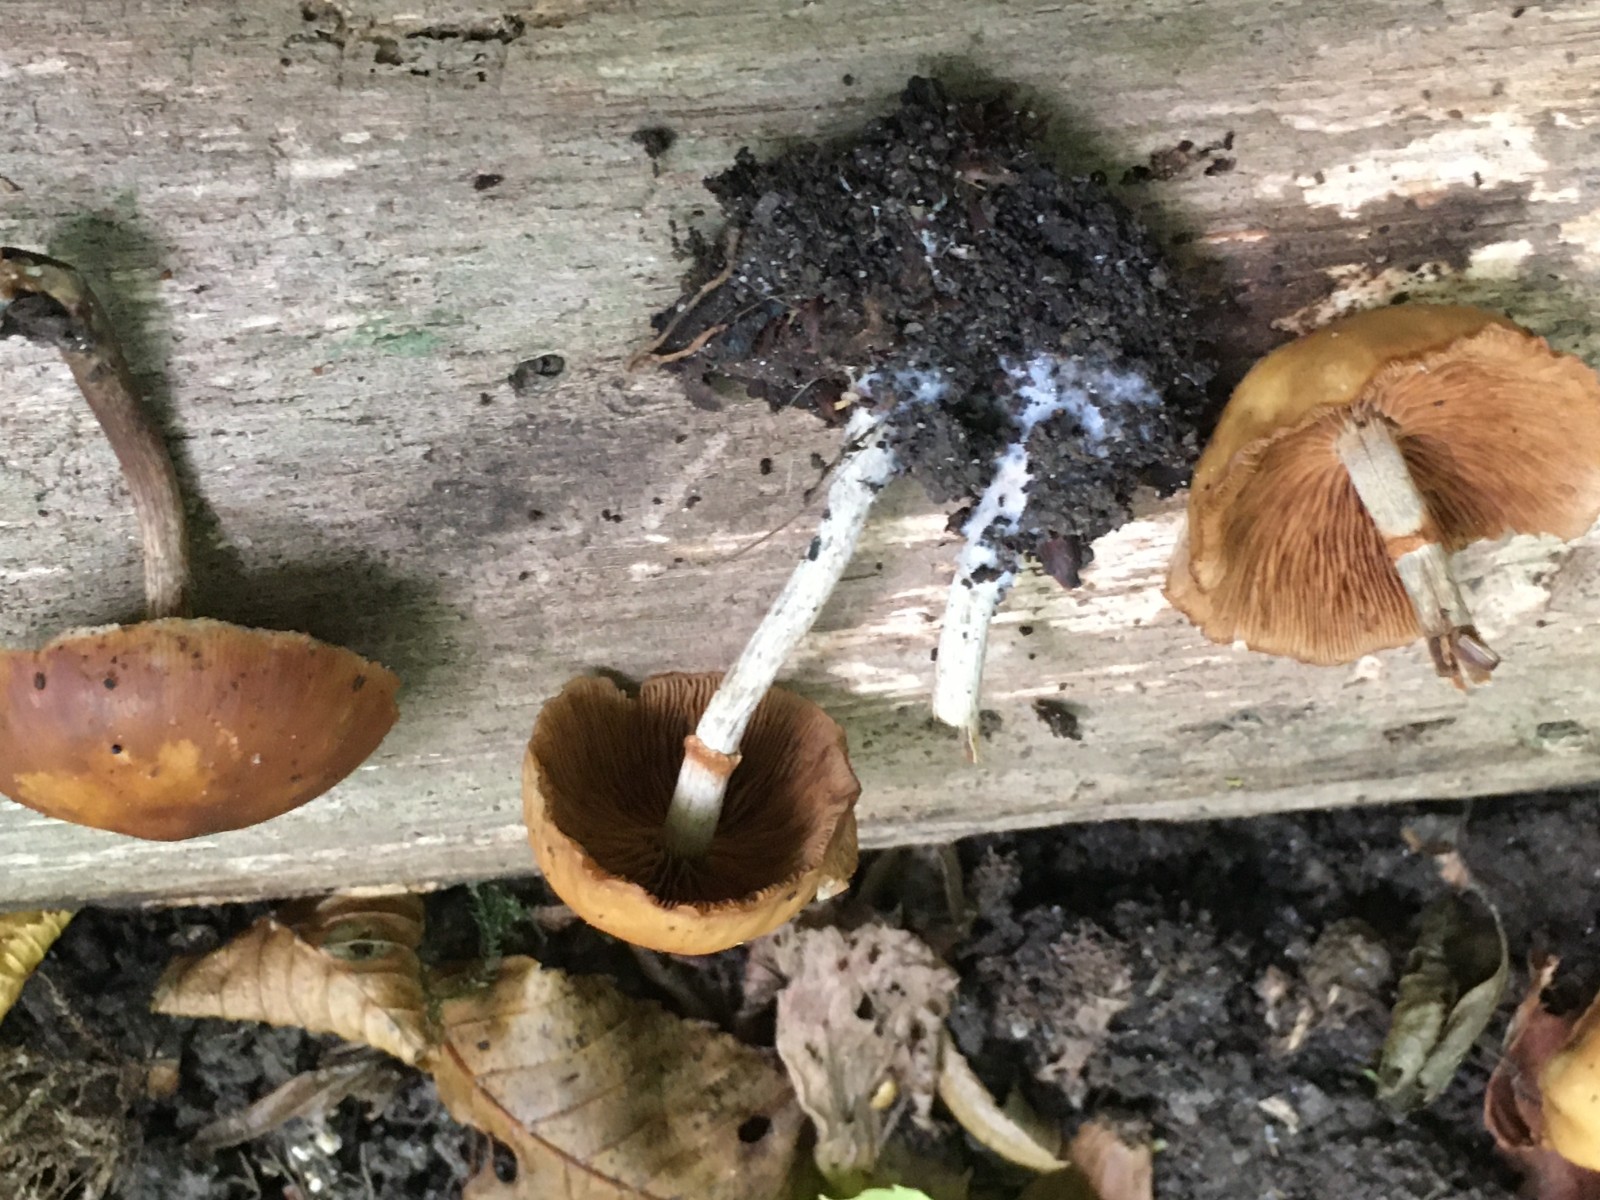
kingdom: Fungi
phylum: Basidiomycota
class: Agaricomycetes
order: Agaricales
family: Hymenogastraceae
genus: Galerina
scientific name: Galerina marginata
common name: randbæltet hjelmhat
